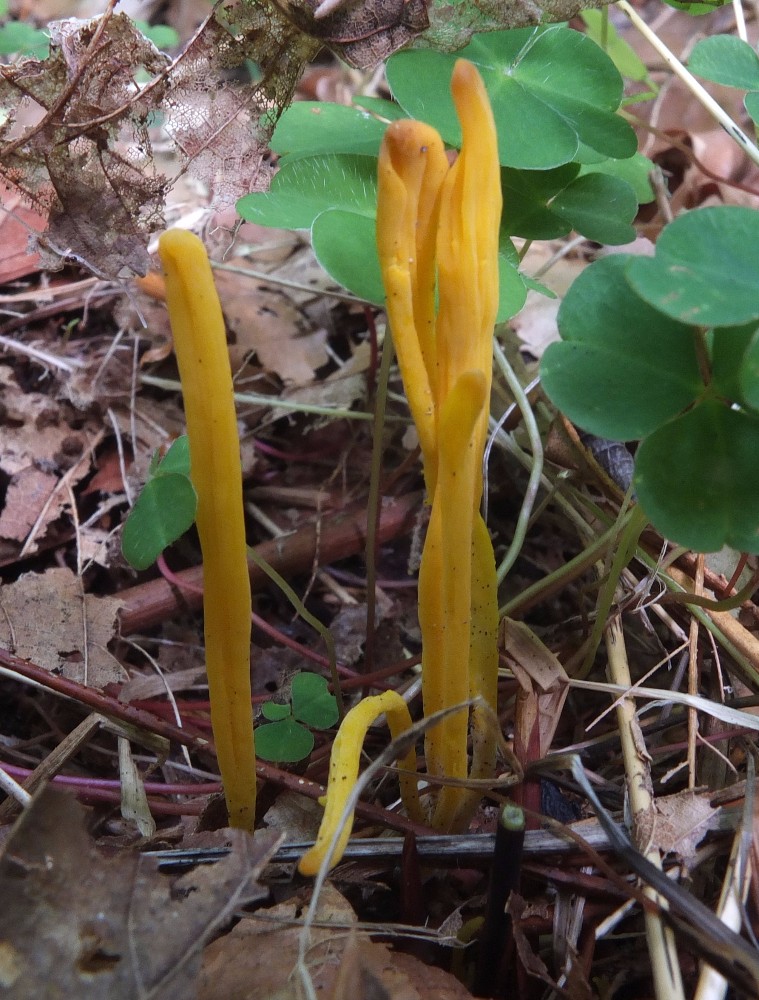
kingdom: Fungi
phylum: Basidiomycota
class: Agaricomycetes
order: Agaricales
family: Clavariaceae
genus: Clavulinopsis
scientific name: Clavulinopsis helvola
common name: orangegul køllesvamp
